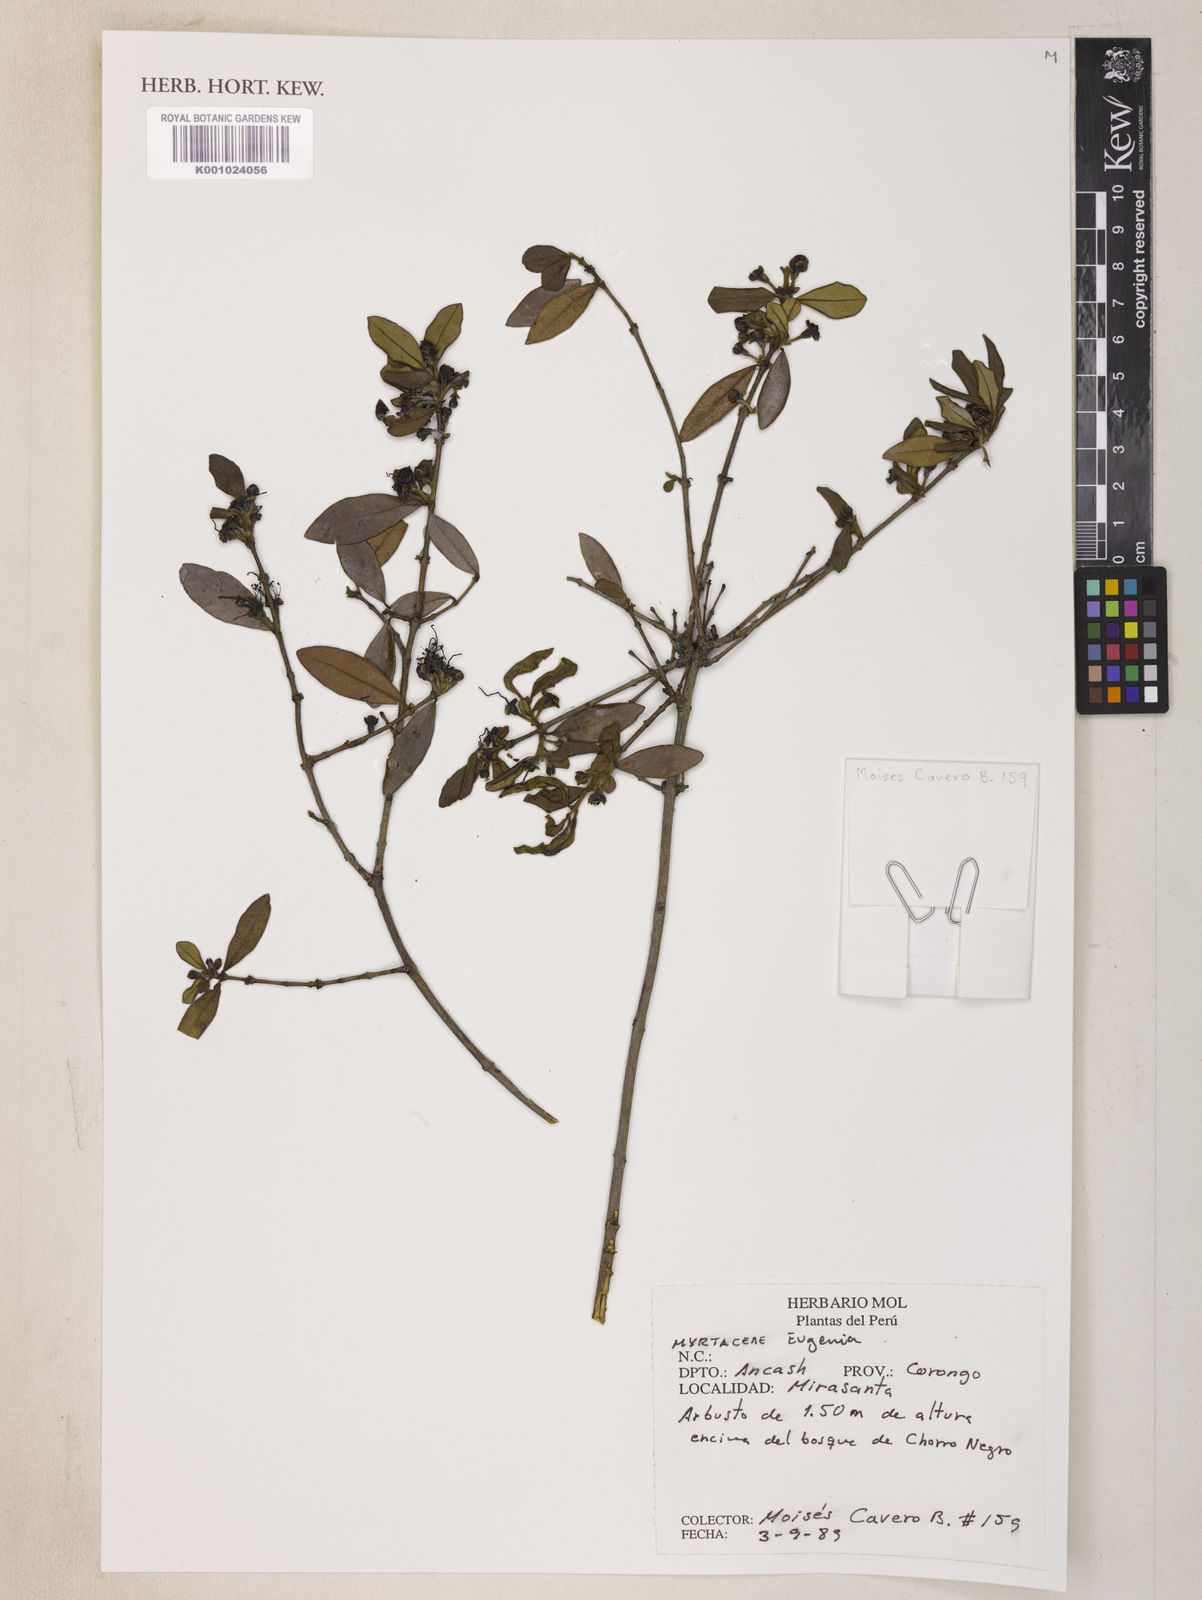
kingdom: Plantae
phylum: Tracheophyta
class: Magnoliopsida
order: Myrtales
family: Myrtaceae
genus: Eugenia
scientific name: Eugenia
